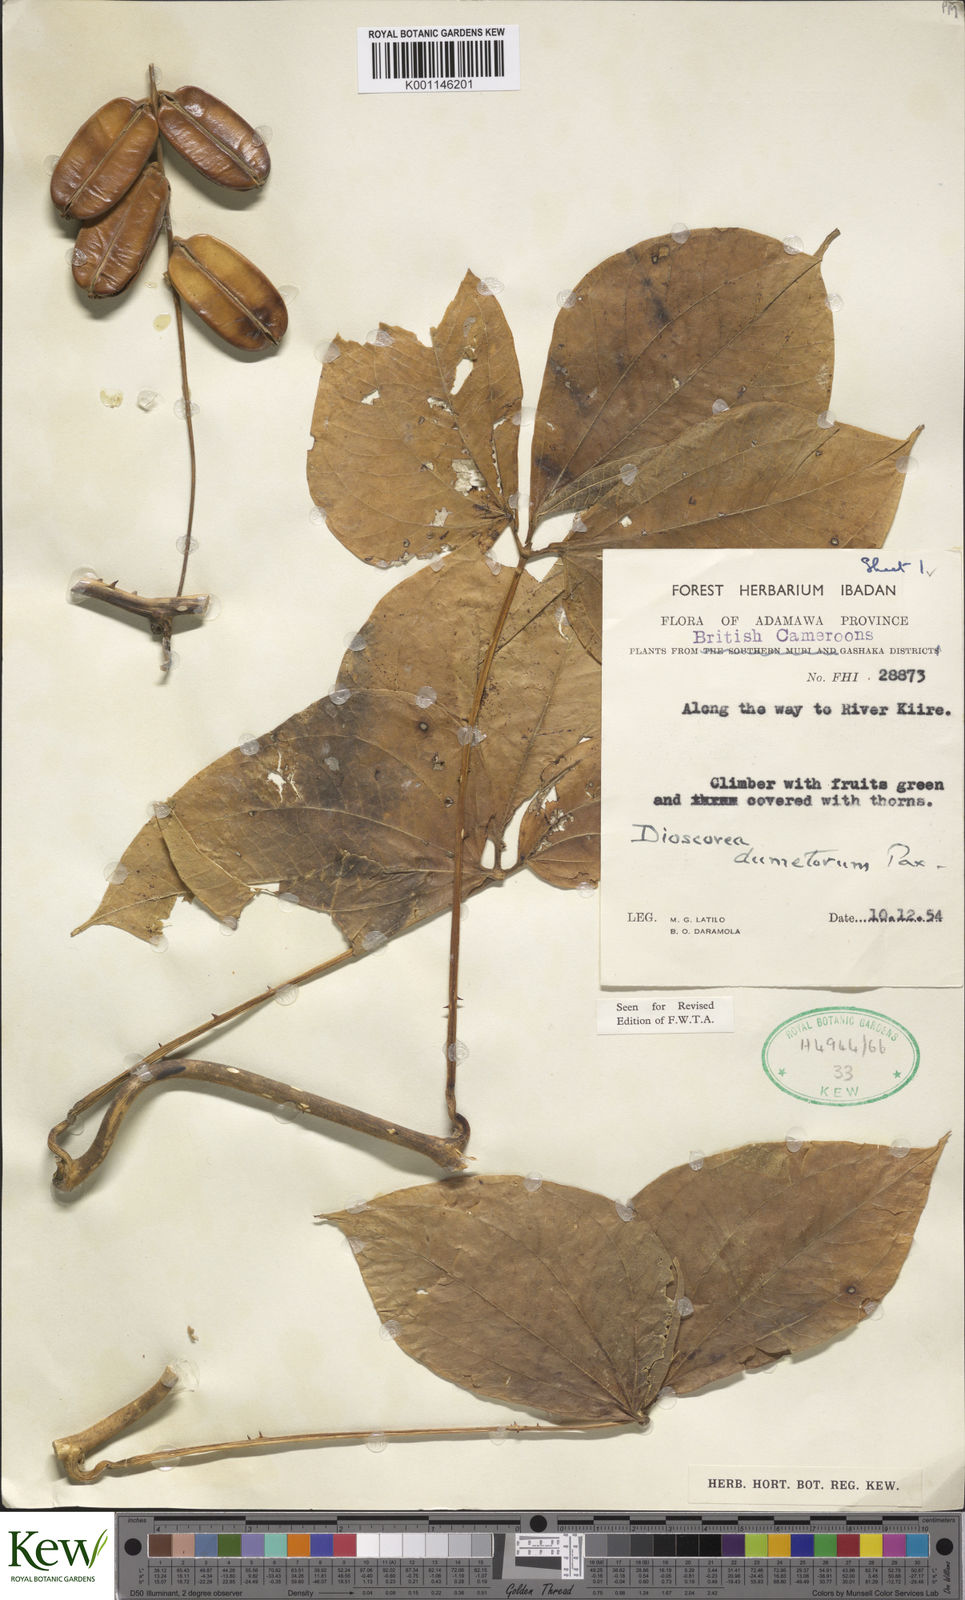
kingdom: Plantae
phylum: Tracheophyta
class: Liliopsida
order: Dioscoreales
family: Dioscoreaceae
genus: Dioscorea
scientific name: Dioscorea dumetorum
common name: African bitter yam
